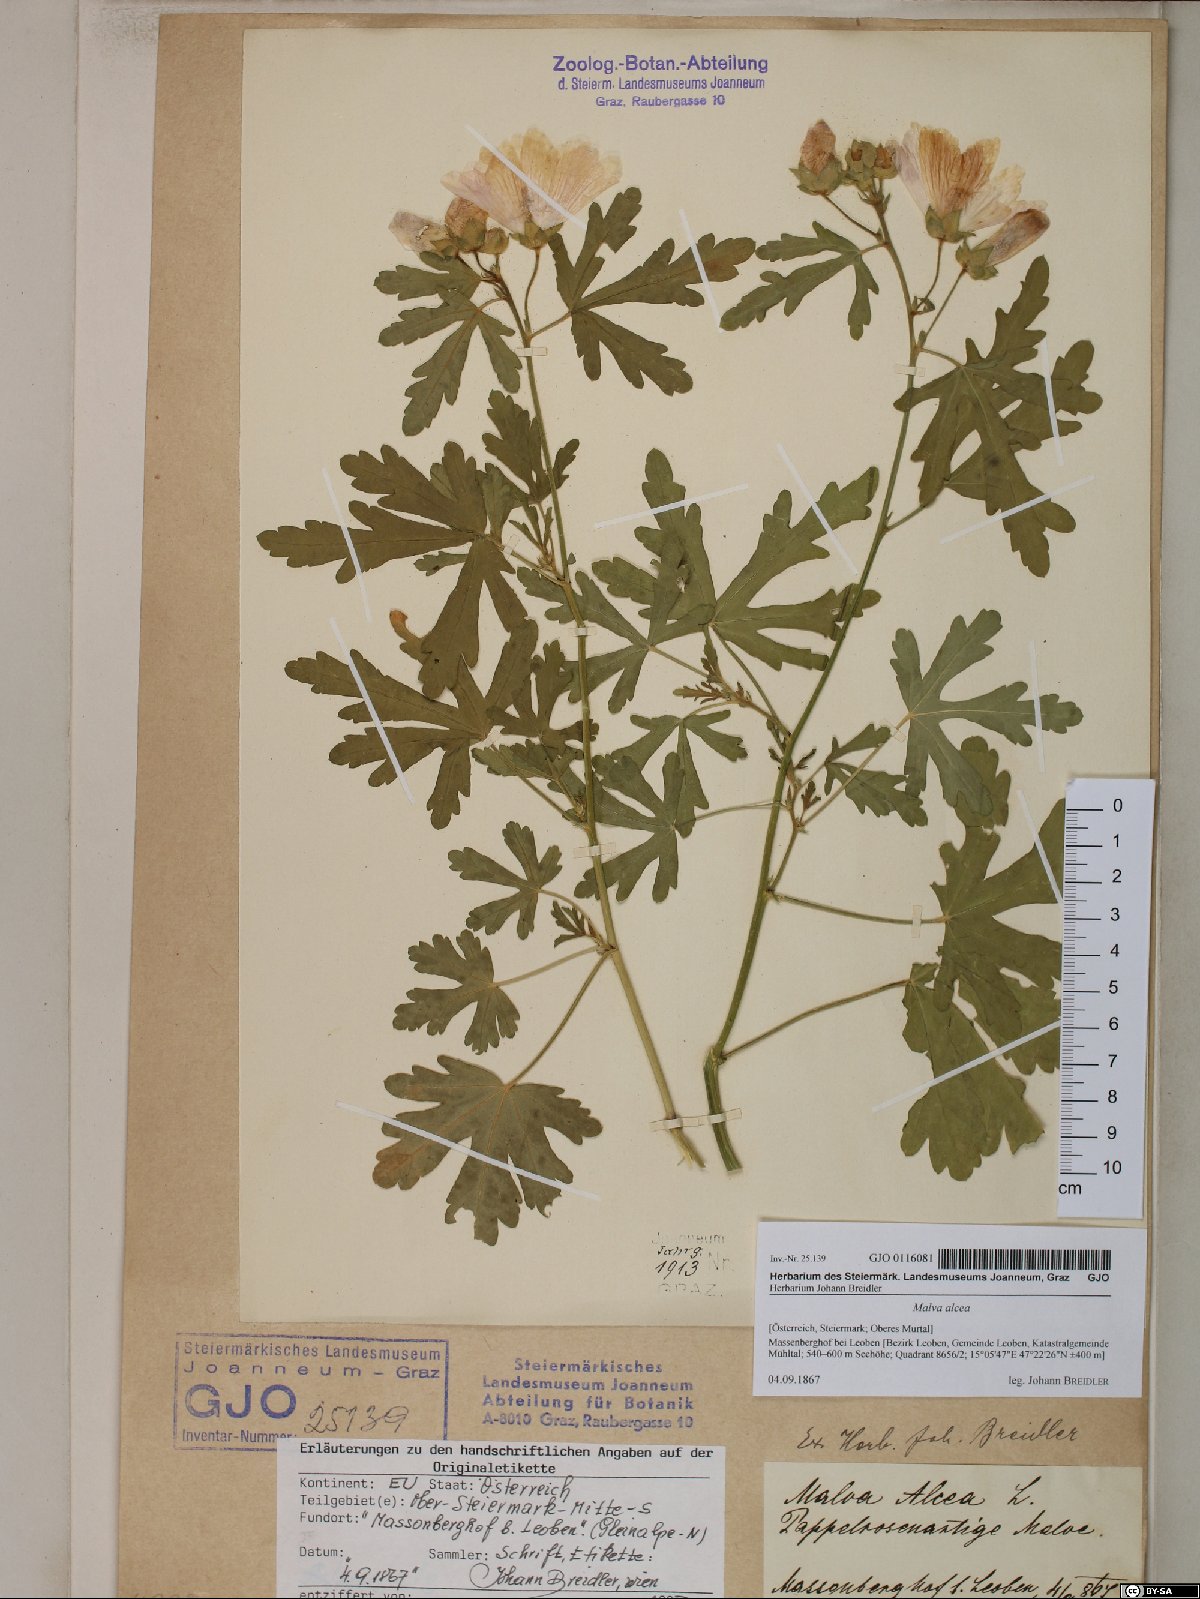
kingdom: Plantae
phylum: Tracheophyta
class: Magnoliopsida
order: Malvales
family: Malvaceae
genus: Malva
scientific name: Malva alcea
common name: Greater musk-mallow
